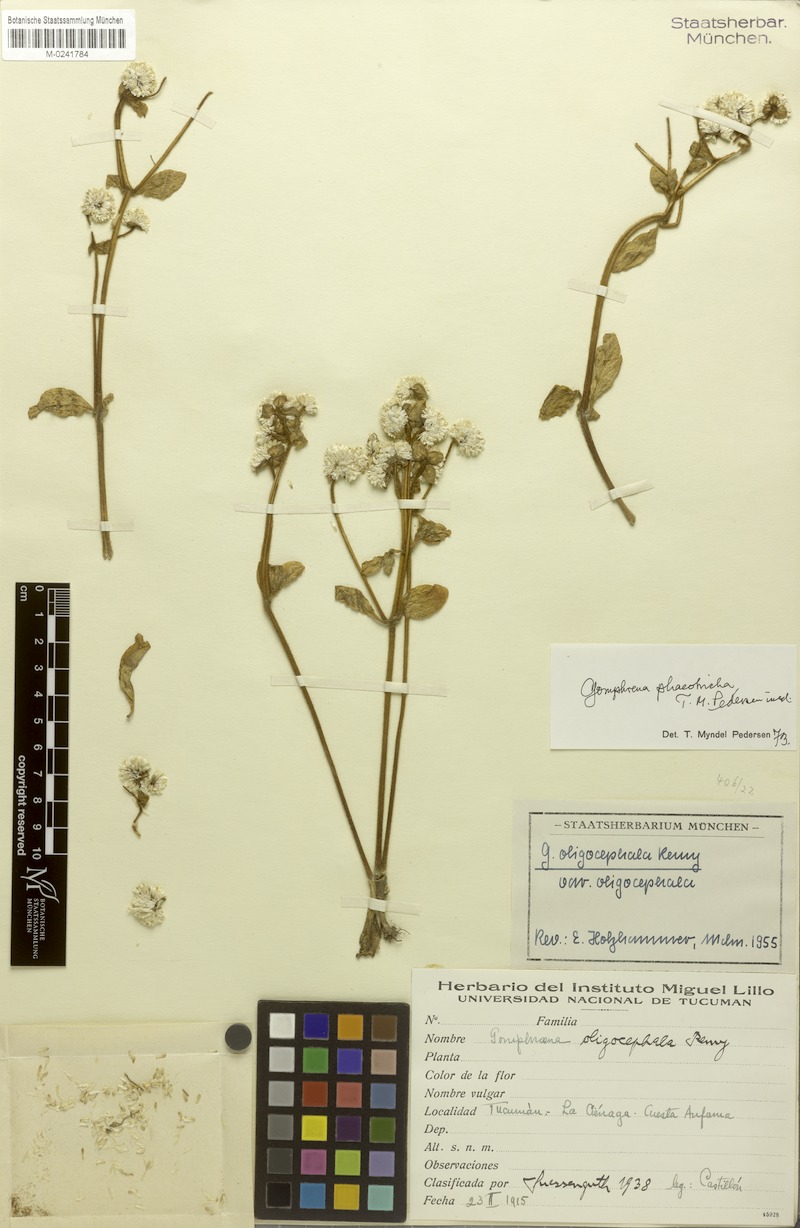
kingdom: Plantae
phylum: Tracheophyta
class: Magnoliopsida
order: Caryophyllales
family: Amaranthaceae
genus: Gomphrena
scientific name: Gomphrena phaeotricha
